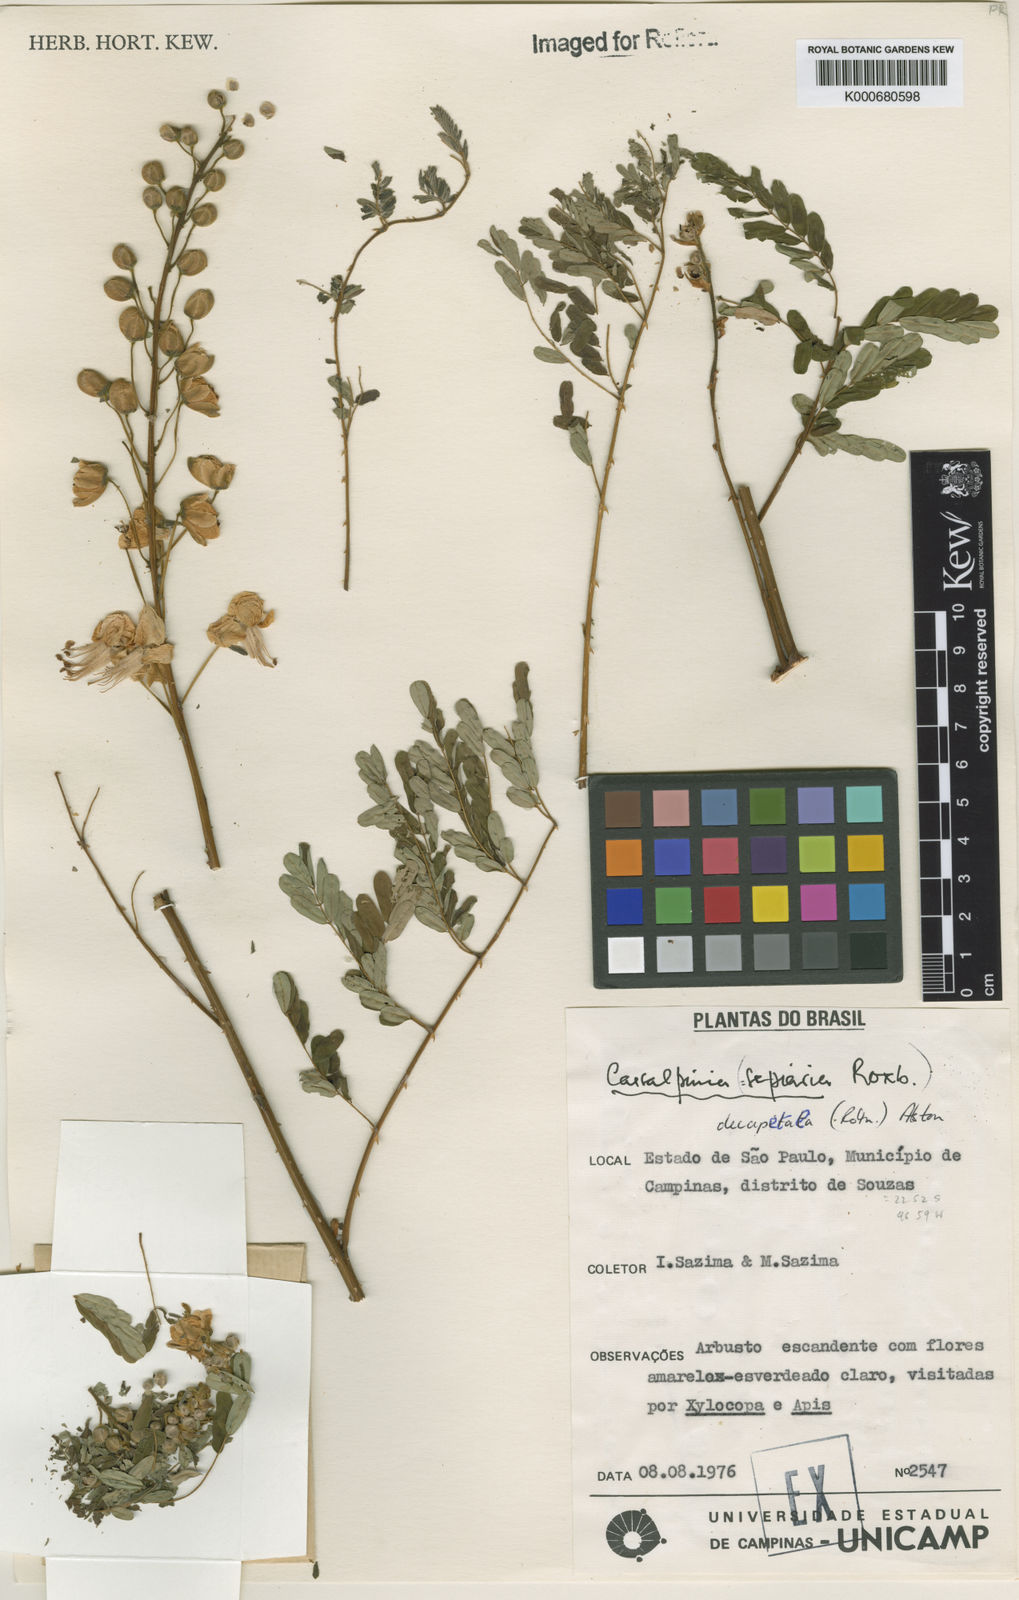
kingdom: Plantae
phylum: Tracheophyta
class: Magnoliopsida
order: Fabales
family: Fabaceae
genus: Biancaea
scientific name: Biancaea decapetala
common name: Cat's claw
